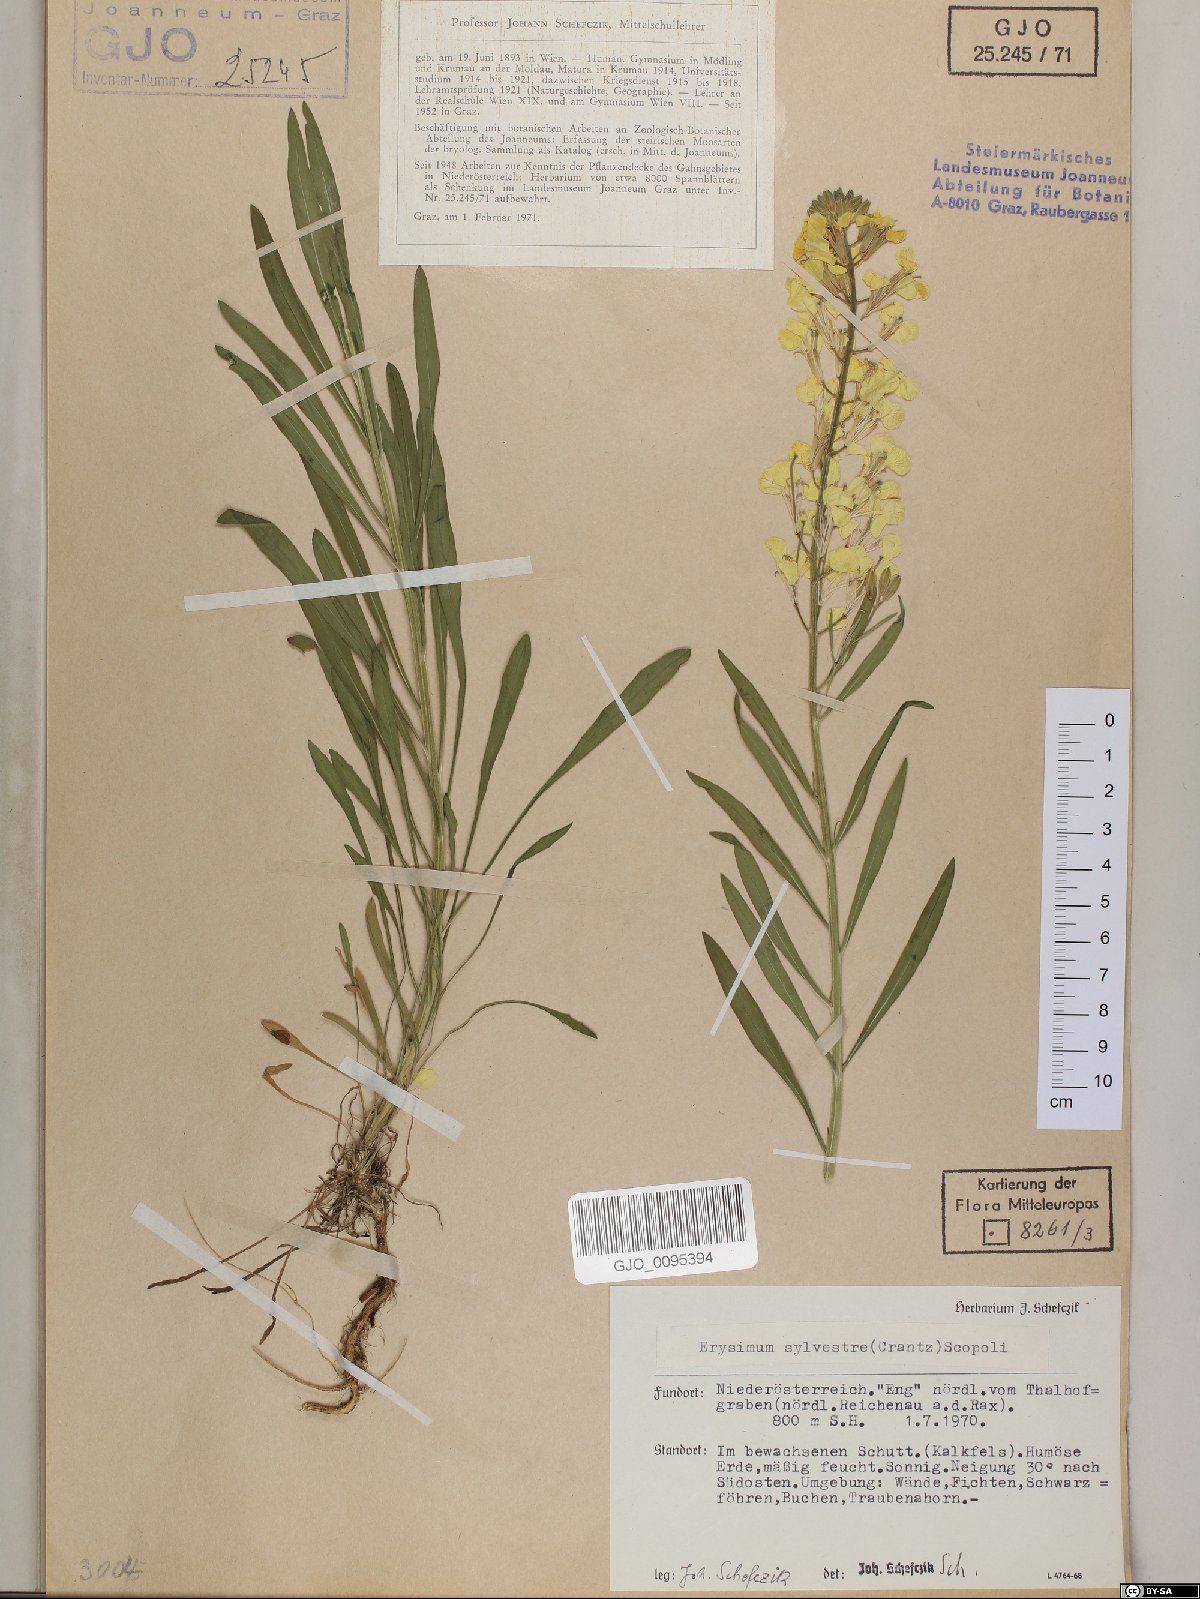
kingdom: Plantae
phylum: Tracheophyta
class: Magnoliopsida
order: Brassicales
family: Brassicaceae
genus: Erysimum
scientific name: Erysimum sylvestre
